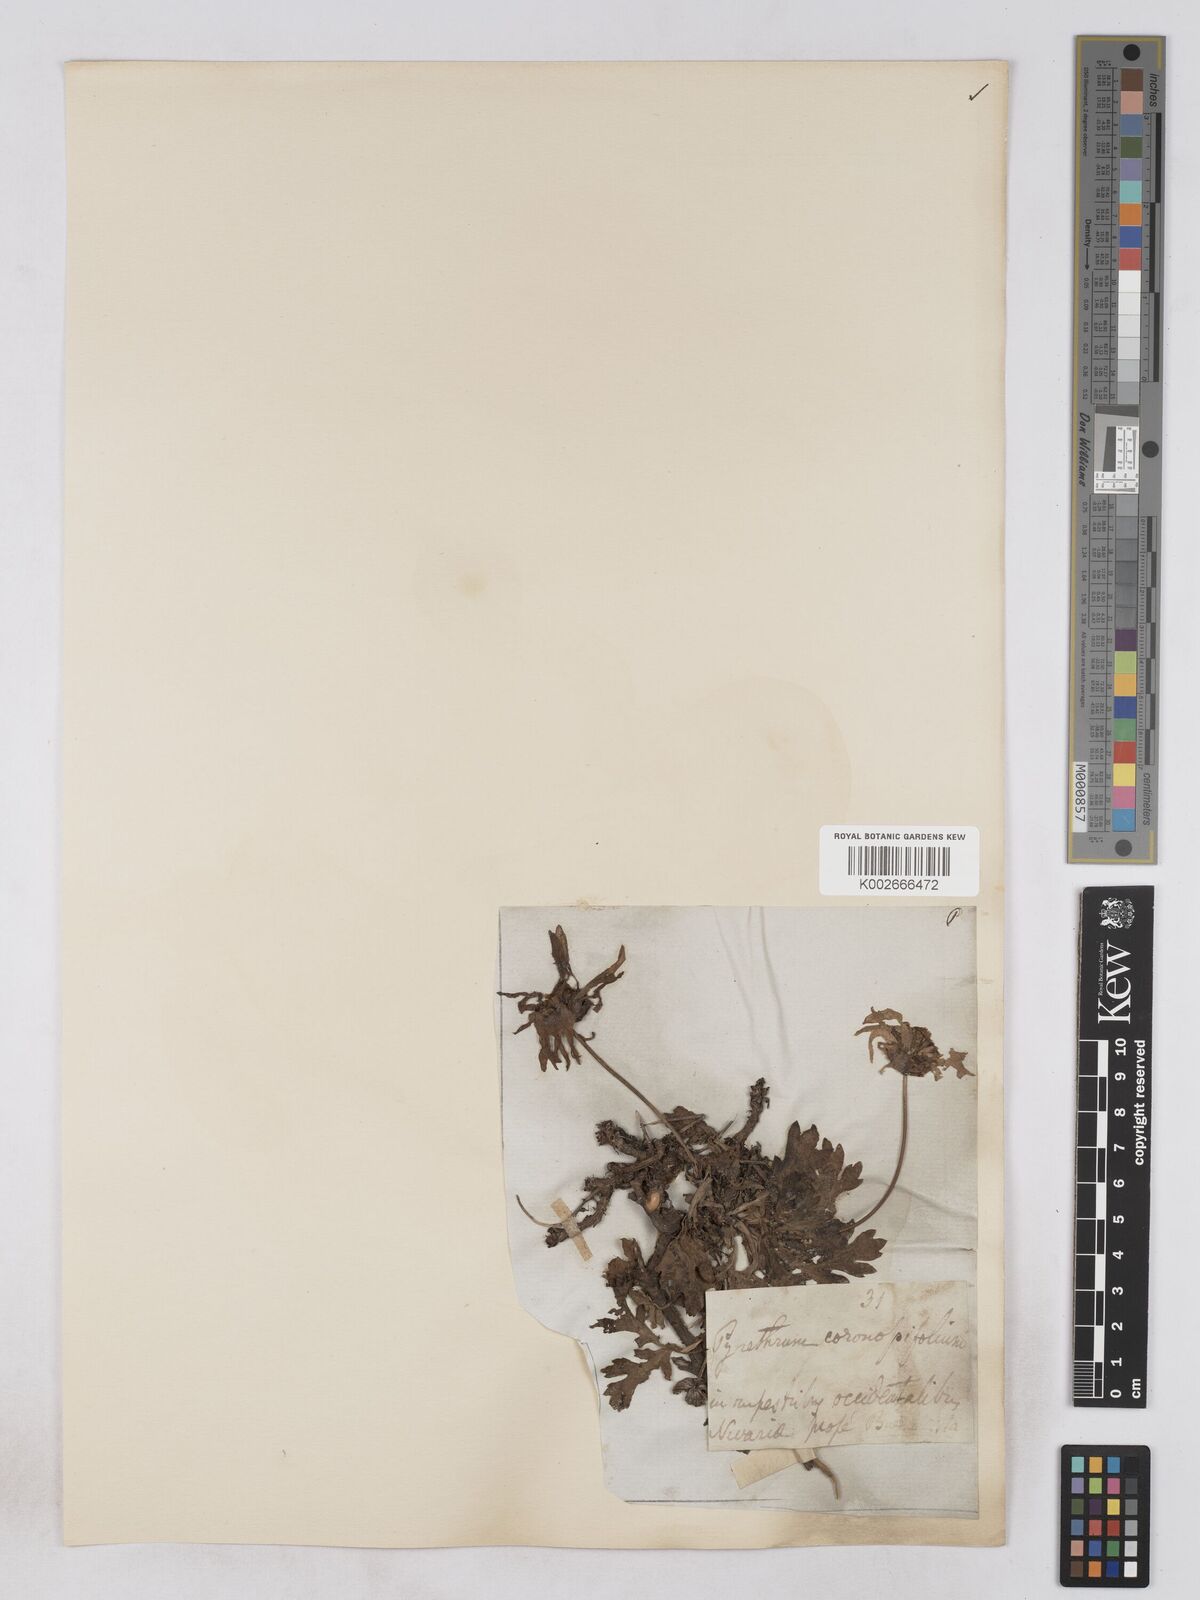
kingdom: Plantae
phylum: Tracheophyta
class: Magnoliopsida
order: Asterales
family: Asteraceae
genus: Argyranthemum
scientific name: Argyranthemum coronopifolium
